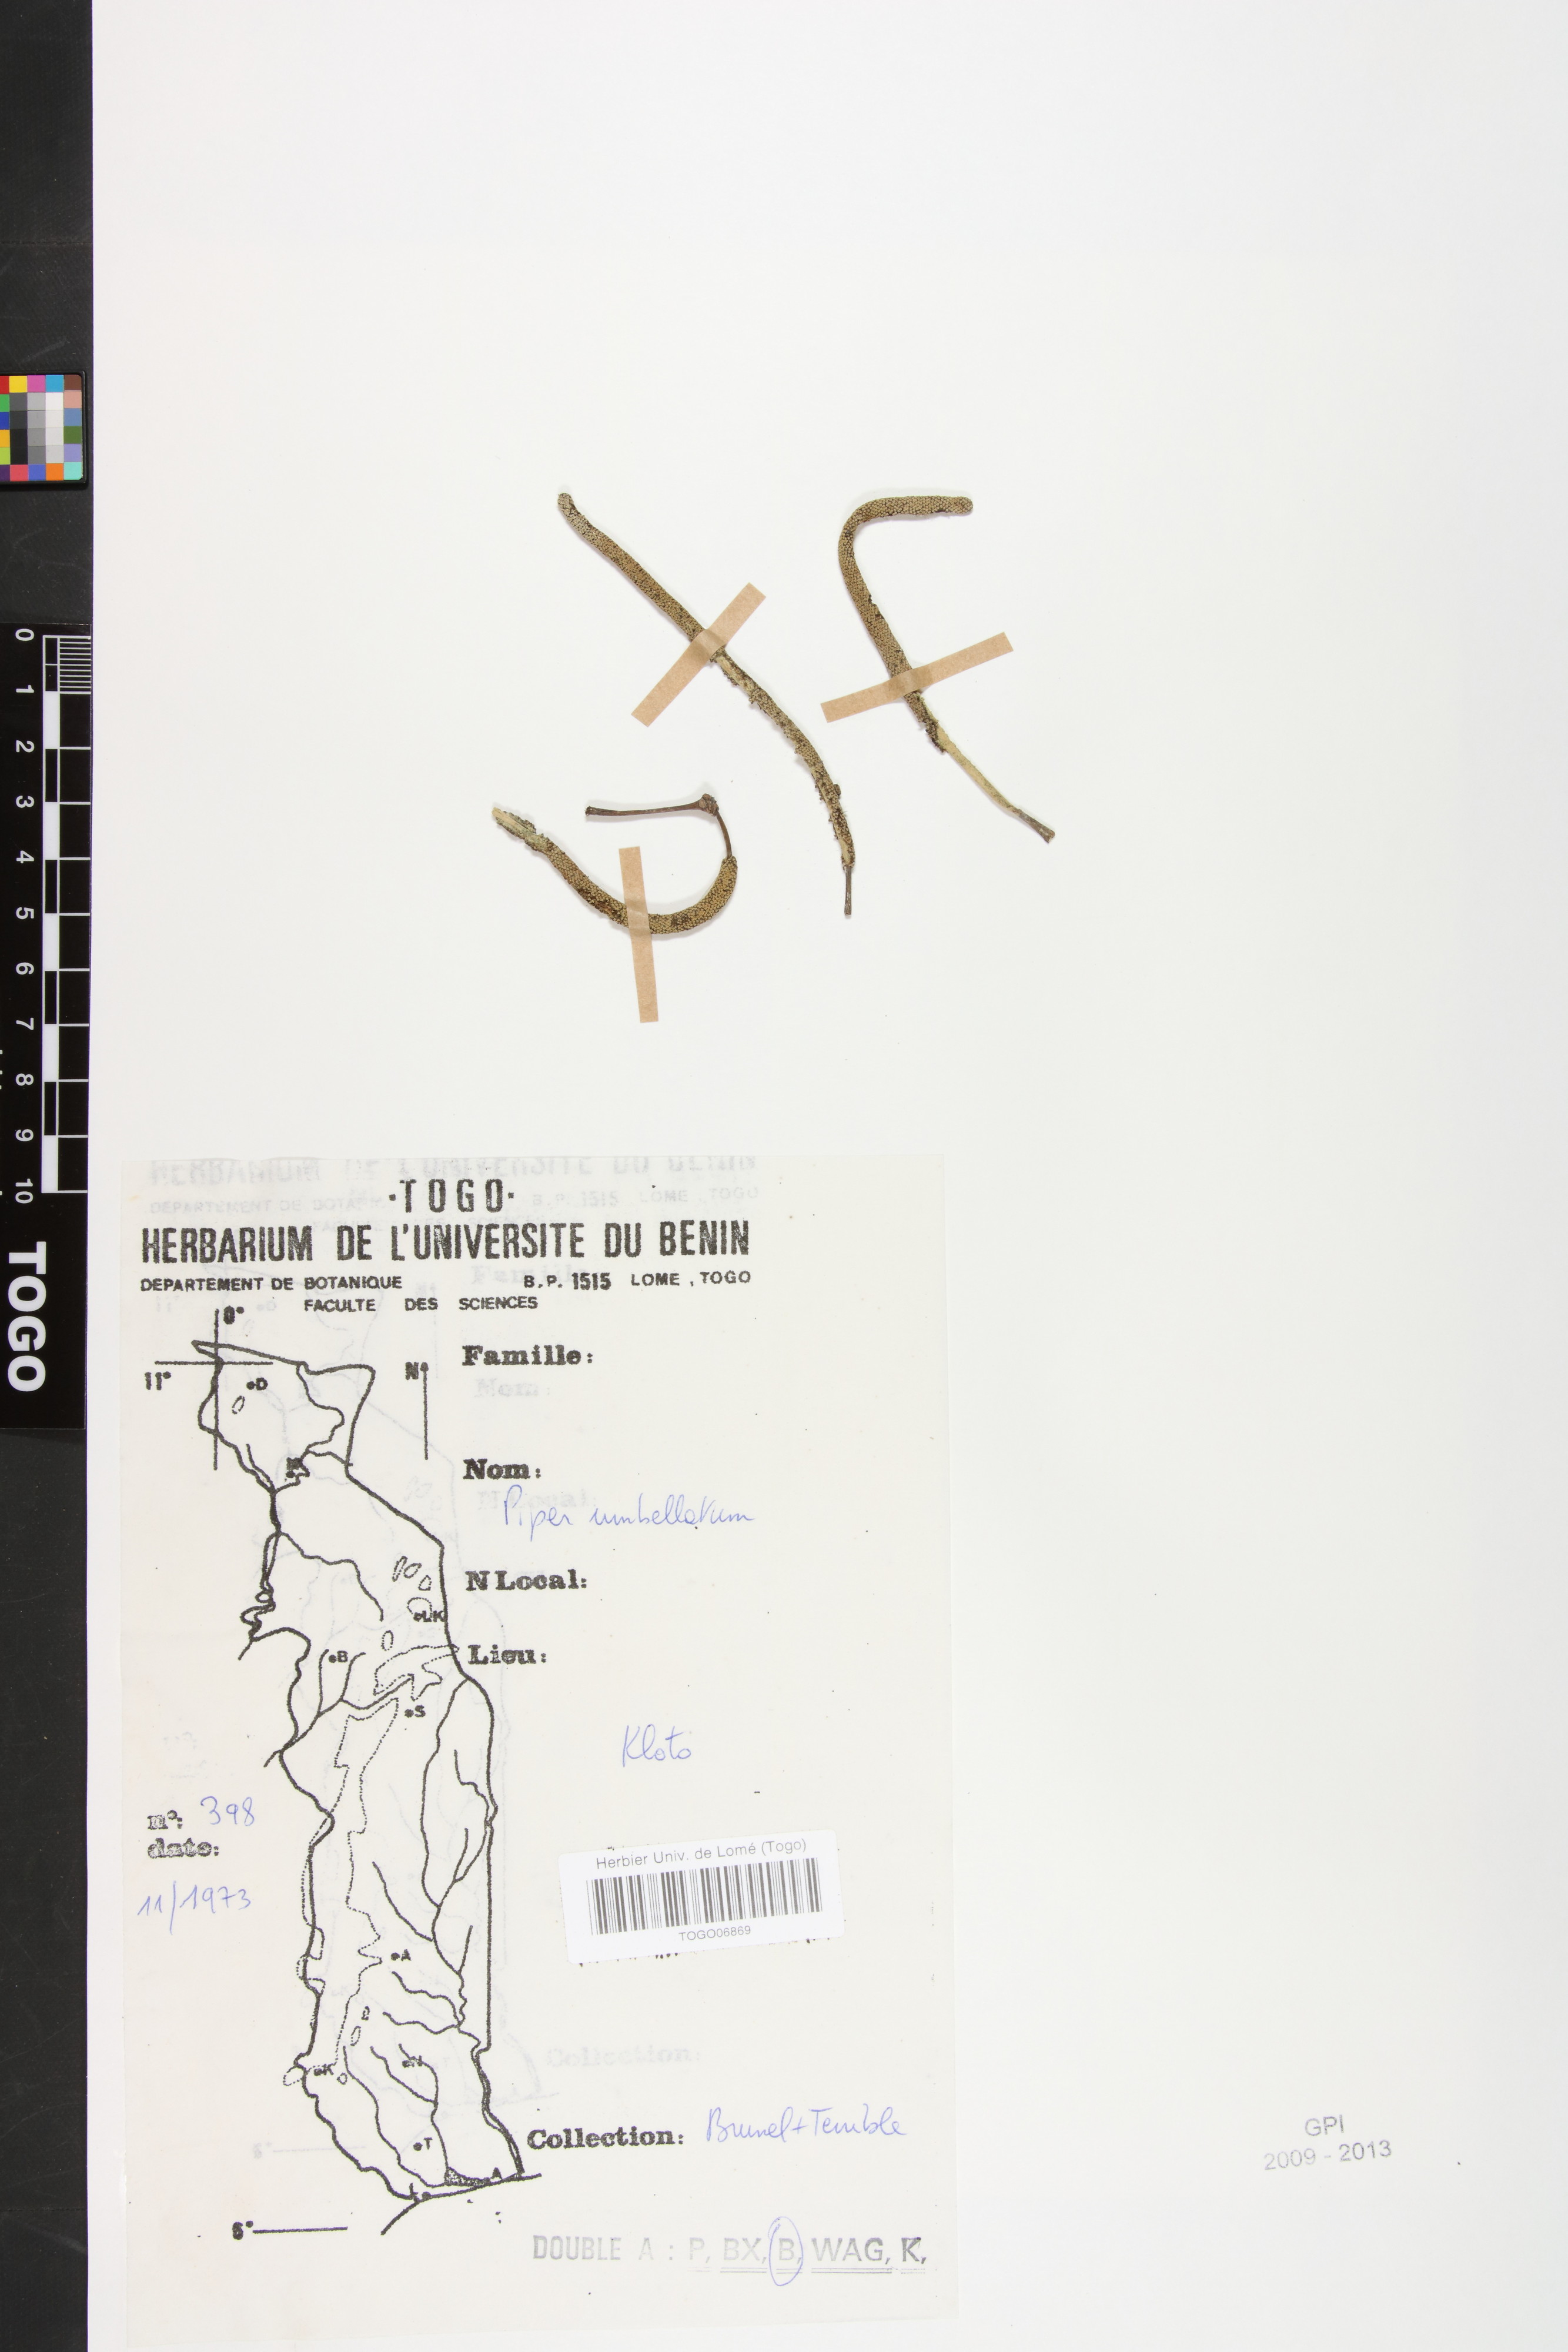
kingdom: Plantae
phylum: Tracheophyta
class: Magnoliopsida
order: Piperales
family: Piperaceae
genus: Piper
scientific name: Piper umbellatum
